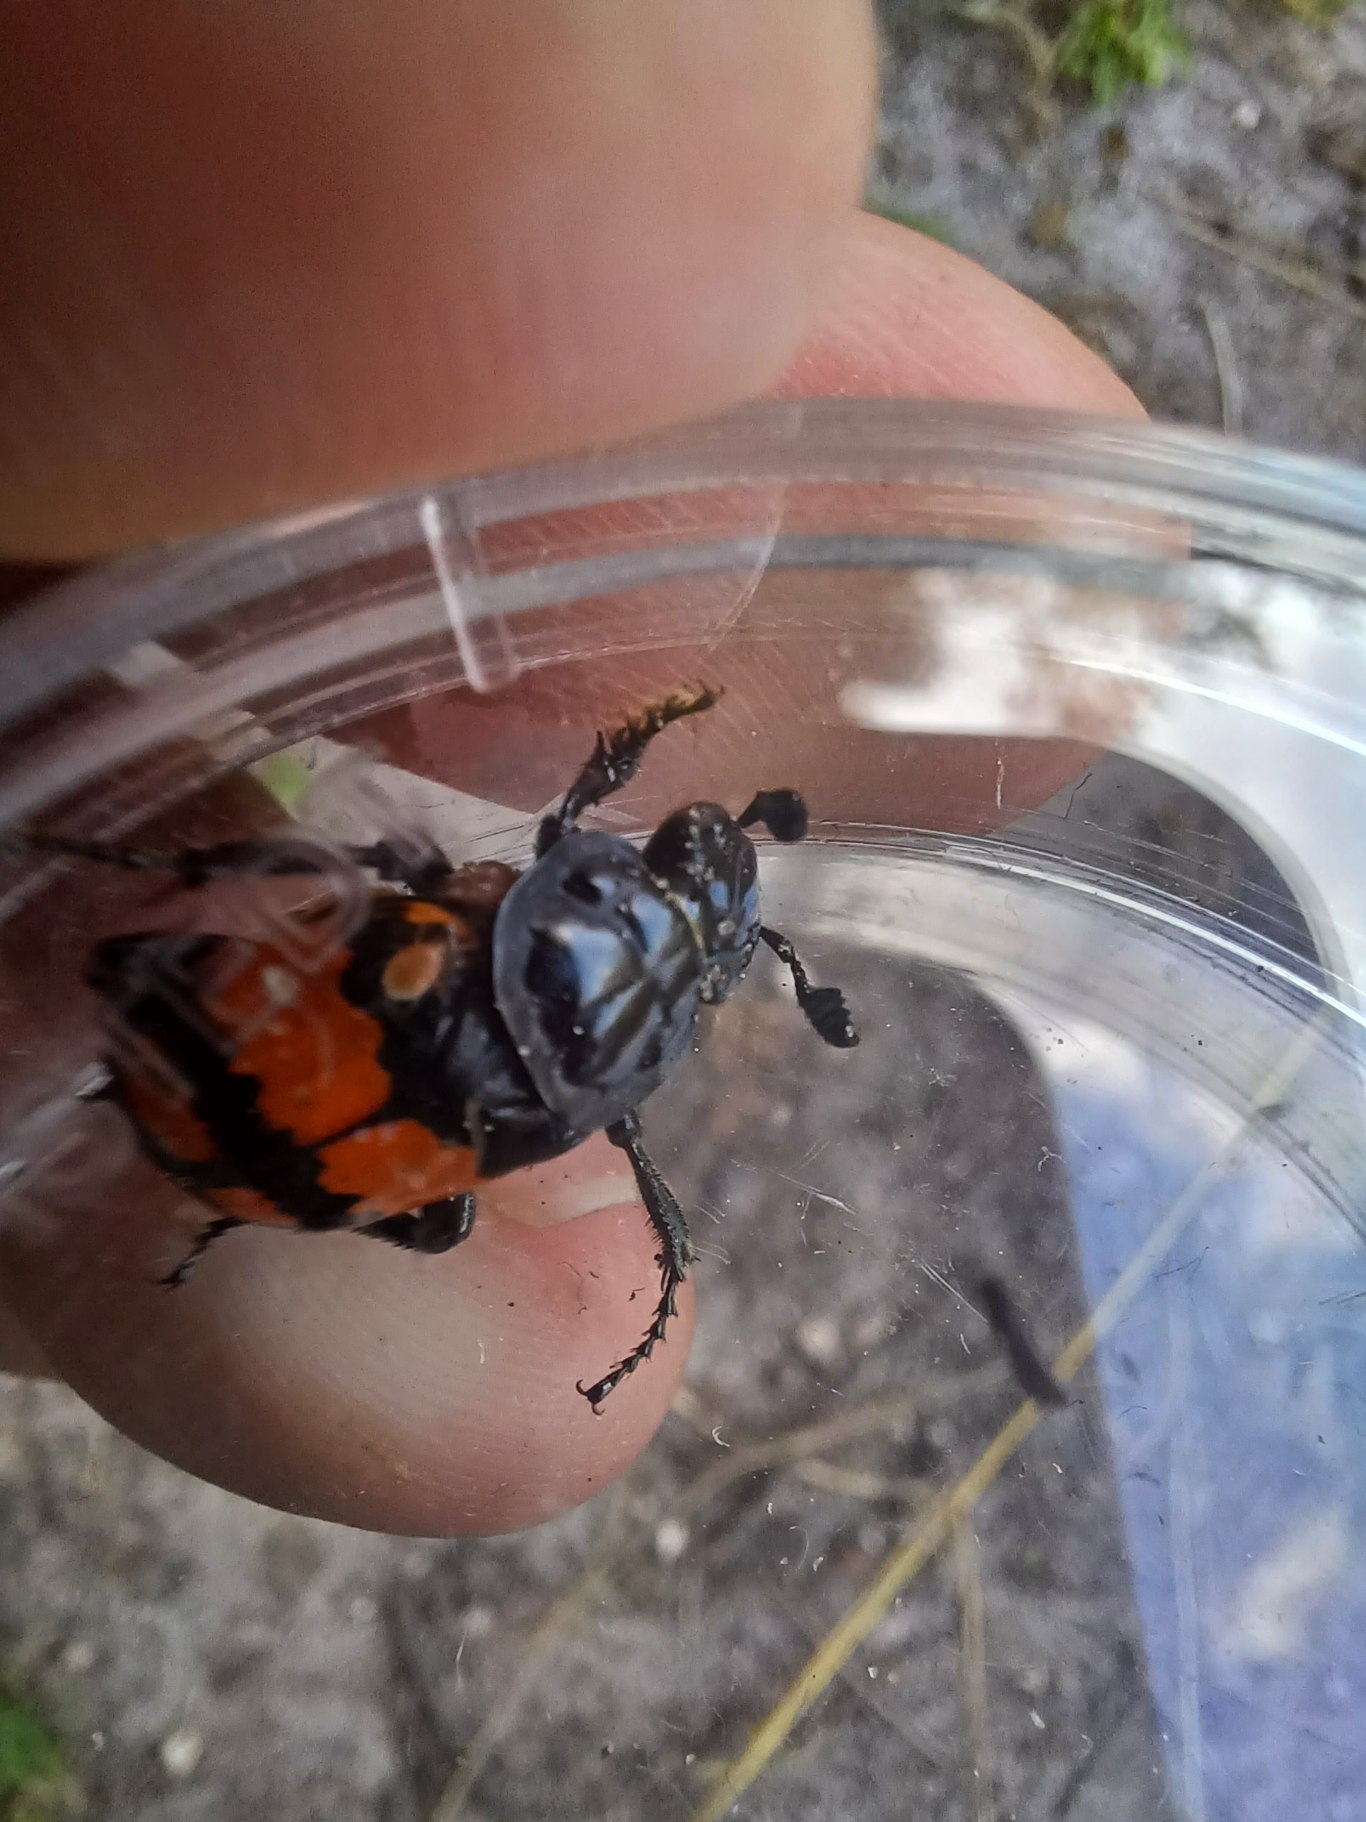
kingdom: Animalia
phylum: Arthropoda
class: Insecta
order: Coleoptera
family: Staphylinidae
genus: Nicrophorus
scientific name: Nicrophorus vespilloides
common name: Sortkøllet ådselgraver
